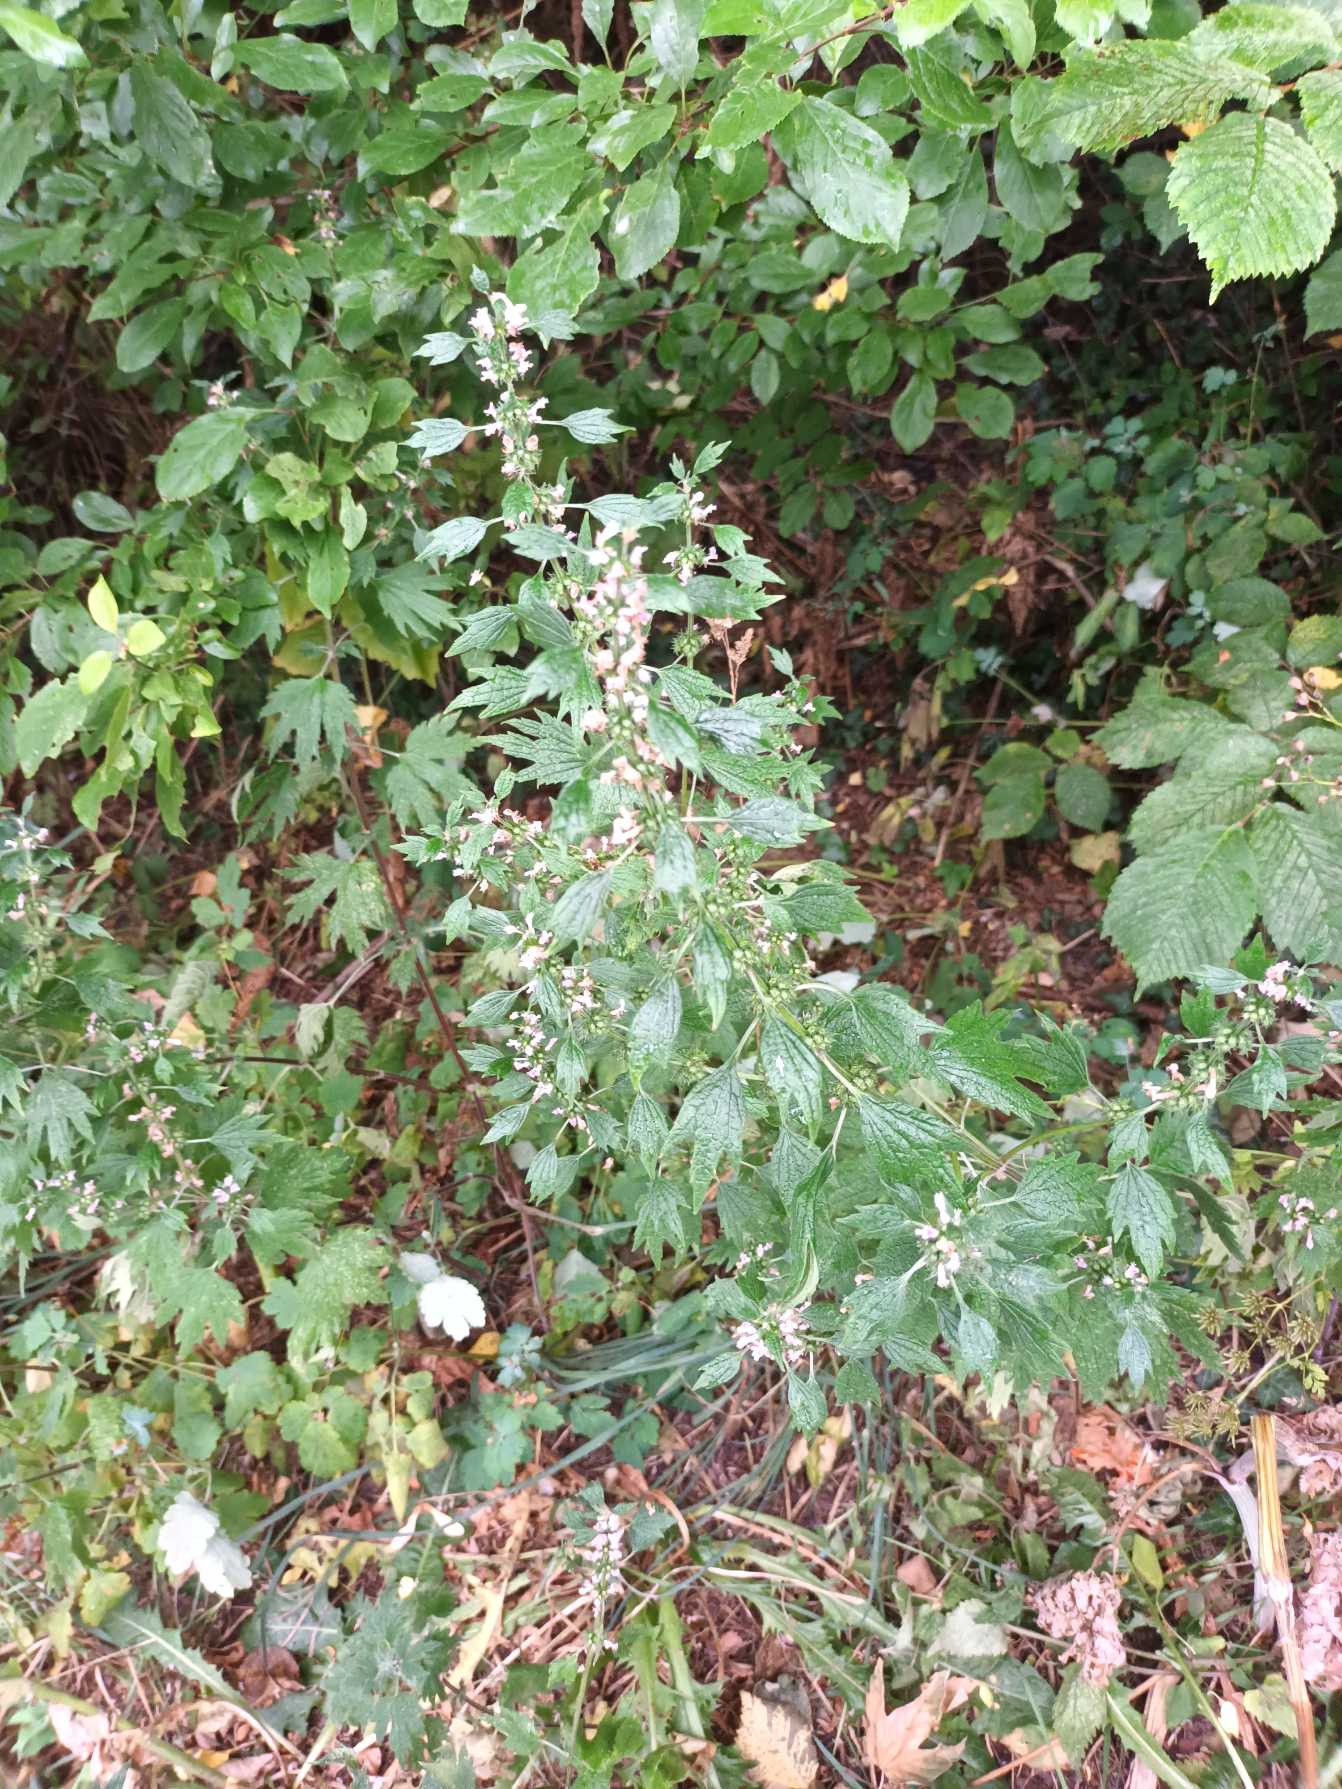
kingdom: Plantae
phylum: Tracheophyta
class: Magnoliopsida
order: Lamiales
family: Lamiaceae
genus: Leonurus
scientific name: Leonurus cardiaca
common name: Hjertespand
